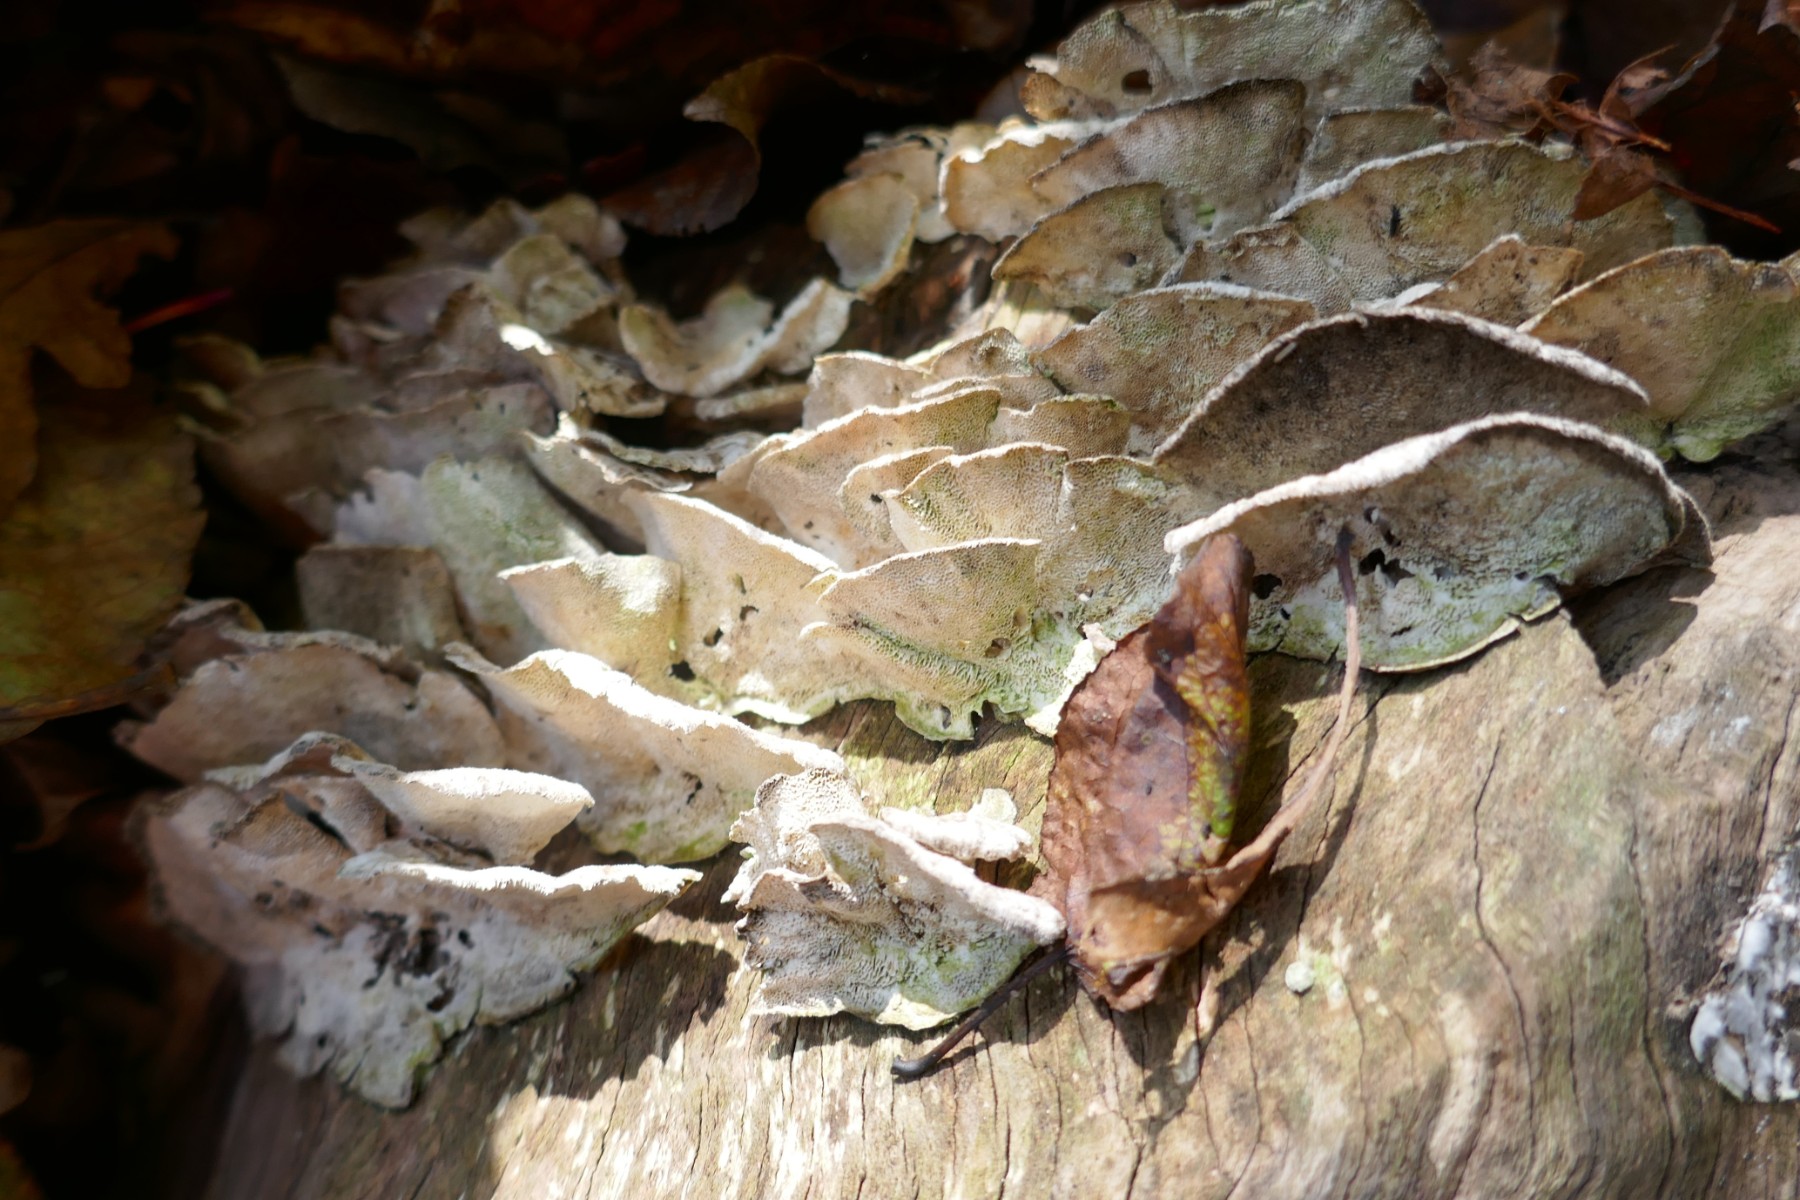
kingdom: Fungi
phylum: Basidiomycota
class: Agaricomycetes
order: Polyporales
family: Polyporaceae
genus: Trametes
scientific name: Trametes hirsuta
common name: håret læderporesvamp
